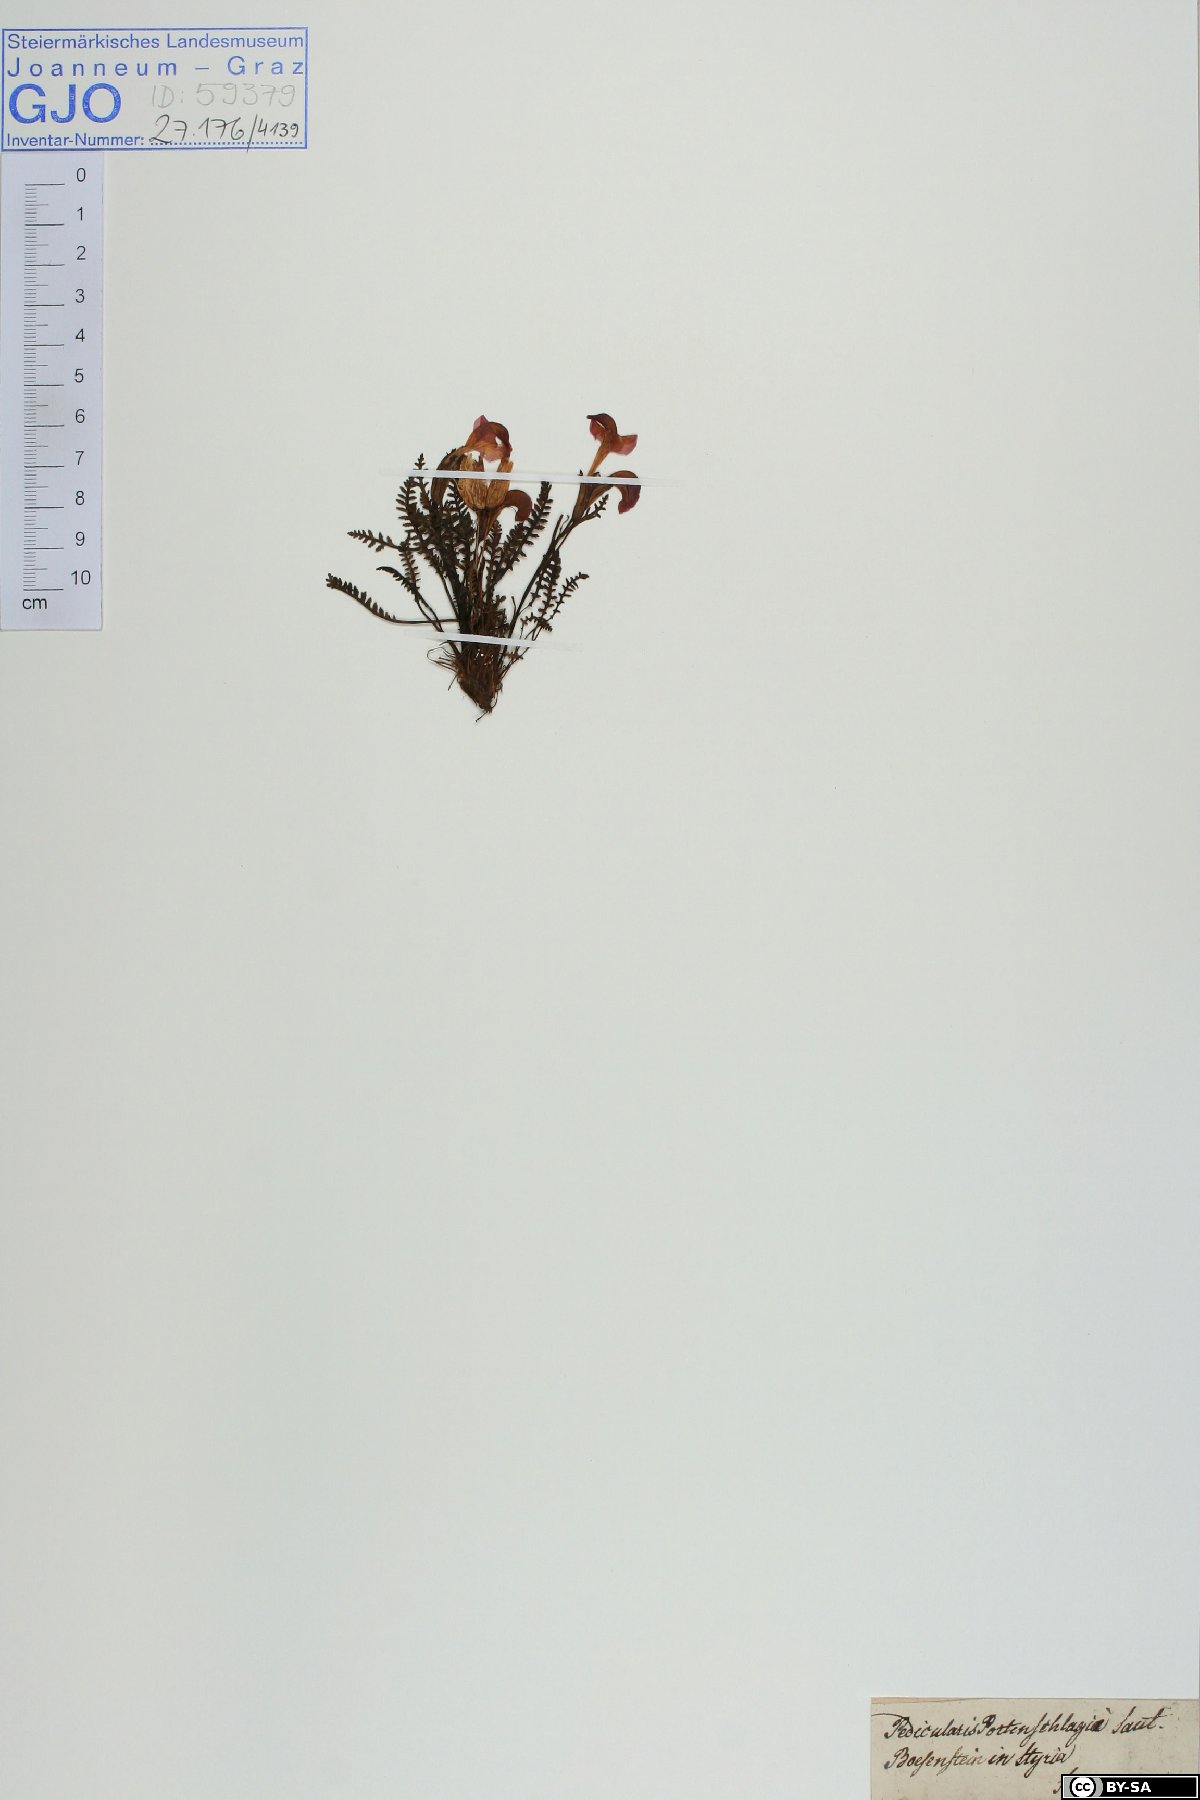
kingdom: Plantae
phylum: Tracheophyta
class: Magnoliopsida
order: Lamiales
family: Orobanchaceae
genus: Pedicularis
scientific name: Pedicularis portenschlagii
